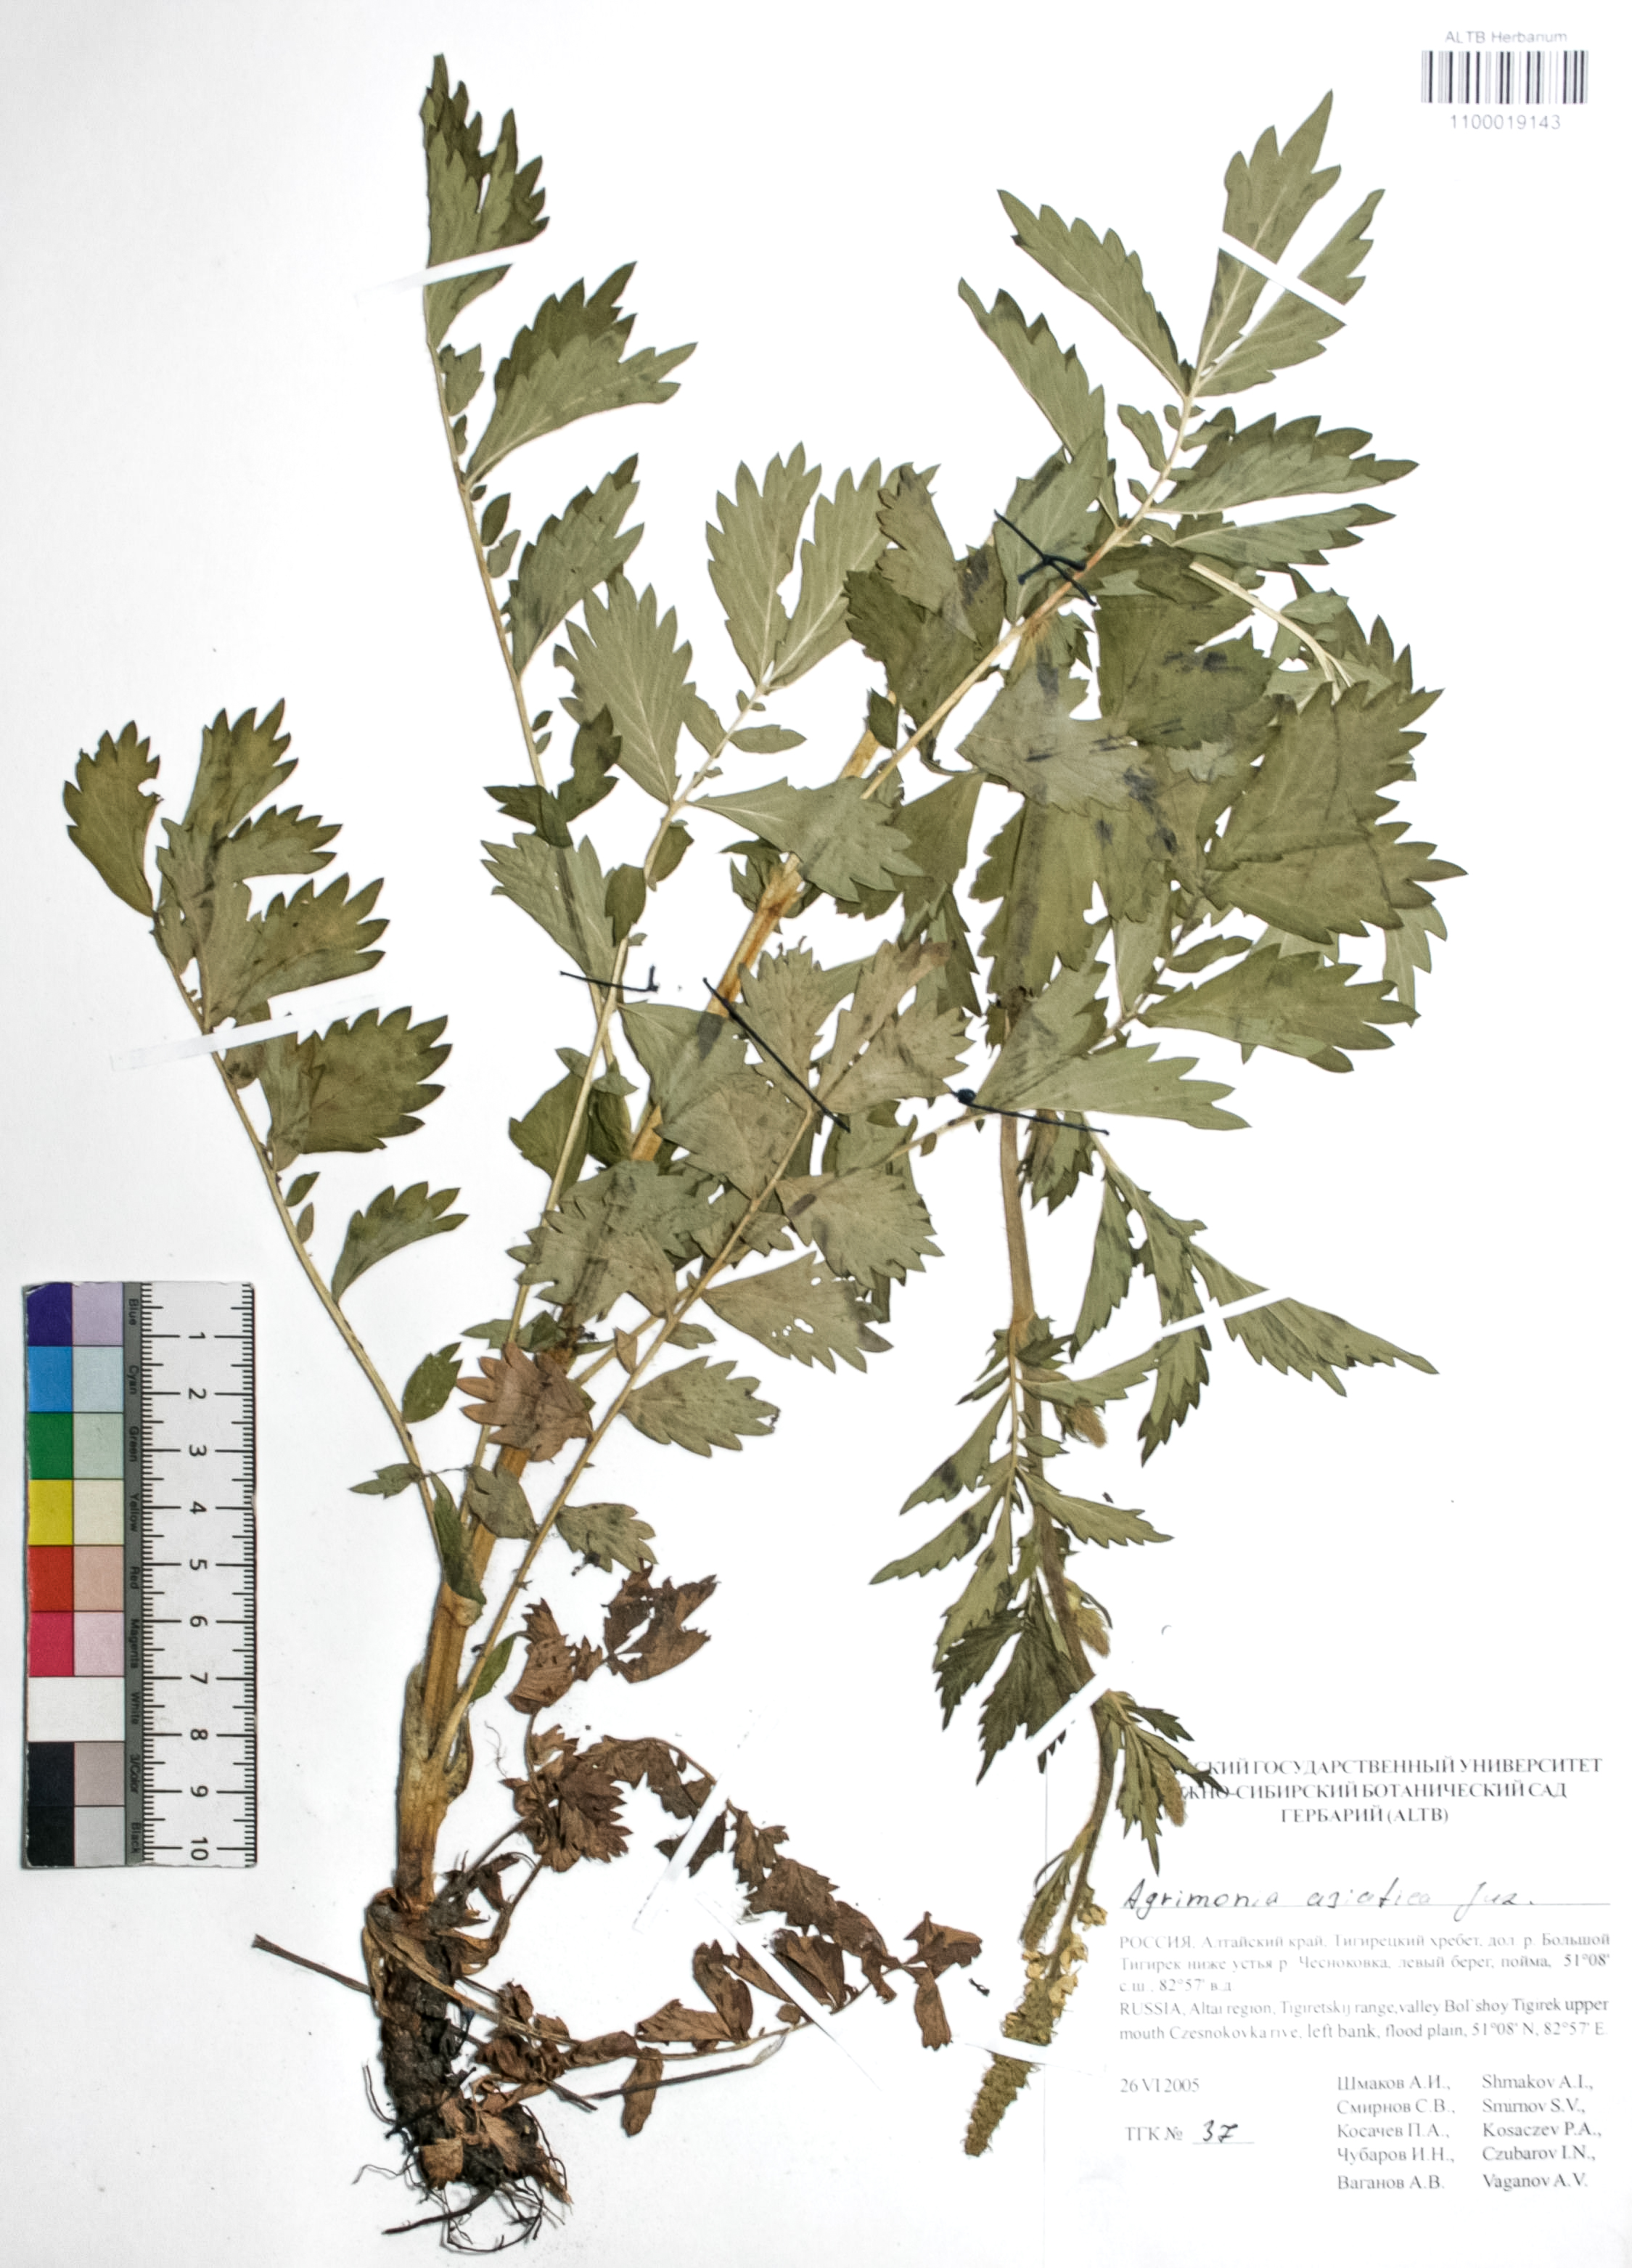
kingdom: Plantae
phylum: Tracheophyta
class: Magnoliopsida
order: Rosales
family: Rosaceae
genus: Agrimonia
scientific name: Agrimonia eupatoria
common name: Agrimony
